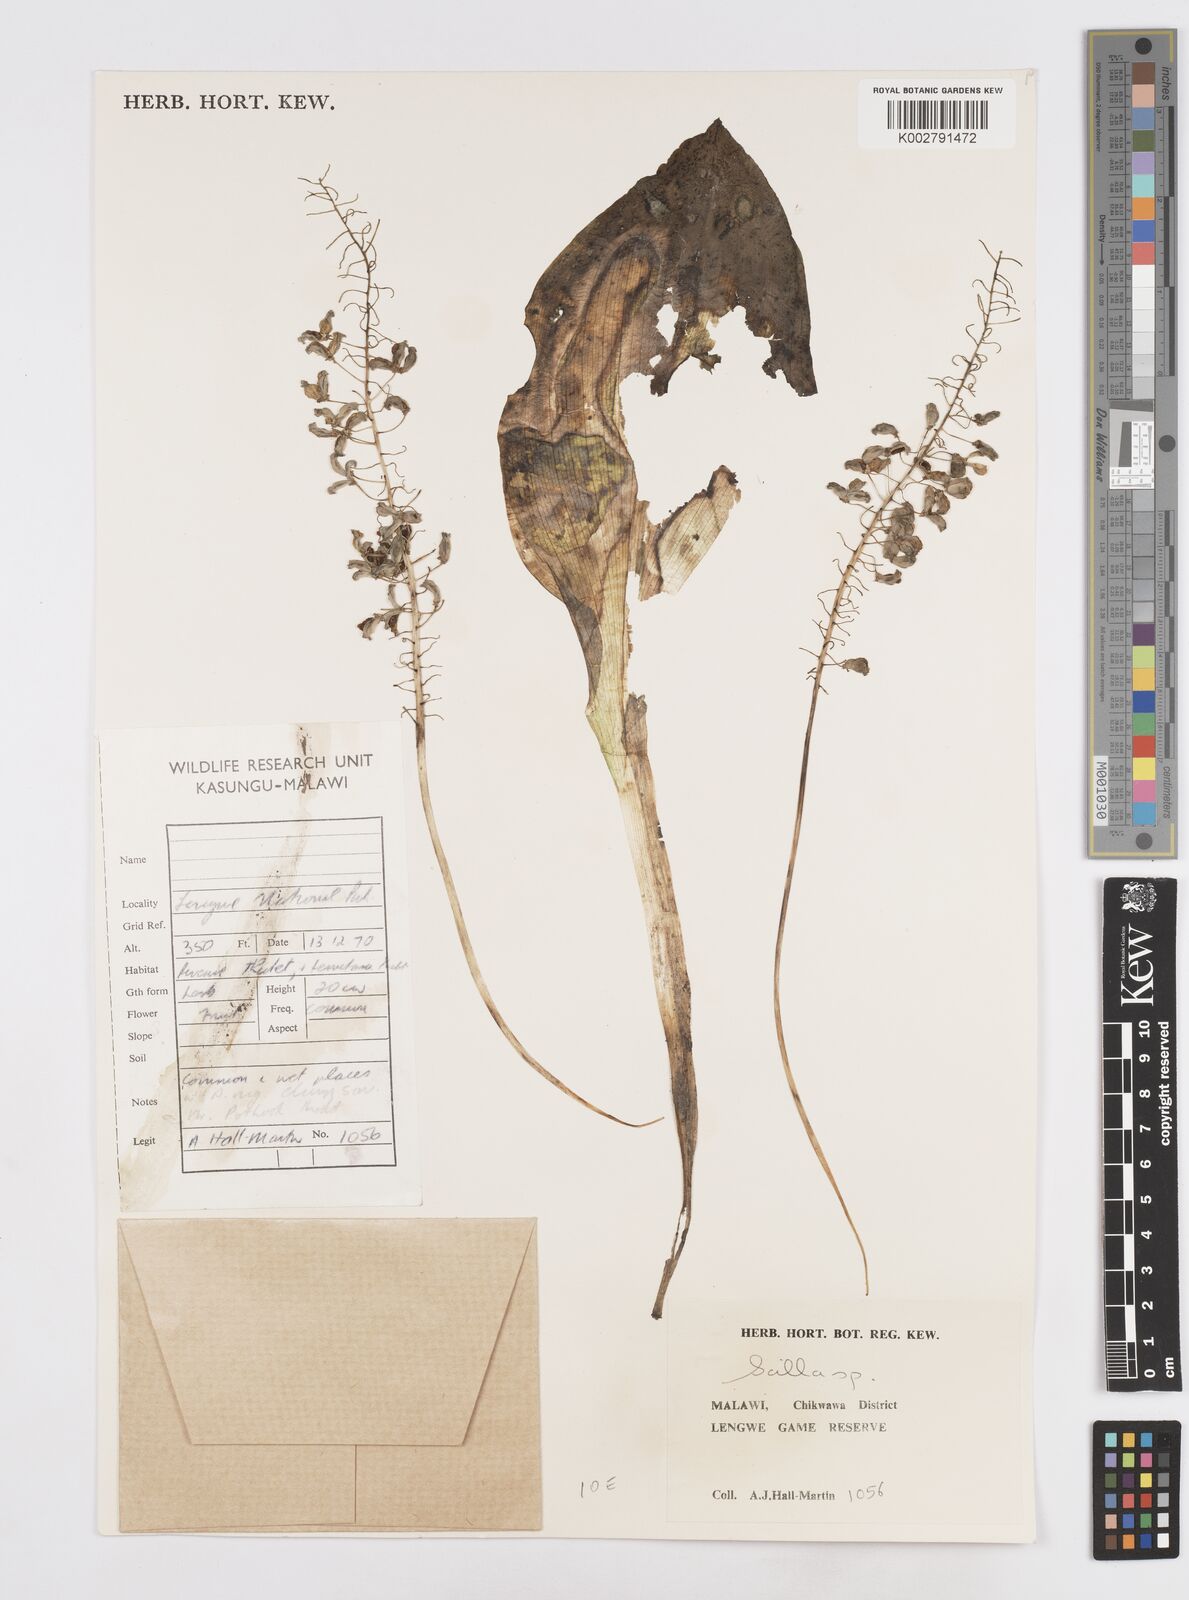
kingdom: Plantae
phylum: Tracheophyta
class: Liliopsida
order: Asparagales
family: Asparagaceae
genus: Scilla
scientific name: Scilla
